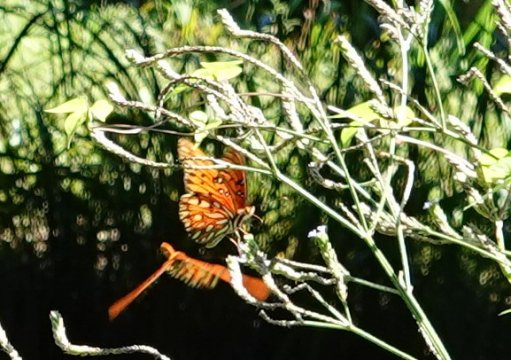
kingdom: Animalia
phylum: Arthropoda
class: Insecta
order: Lepidoptera
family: Nymphalidae
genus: Dione
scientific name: Dione vanillae
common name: Gulf Fritillary
